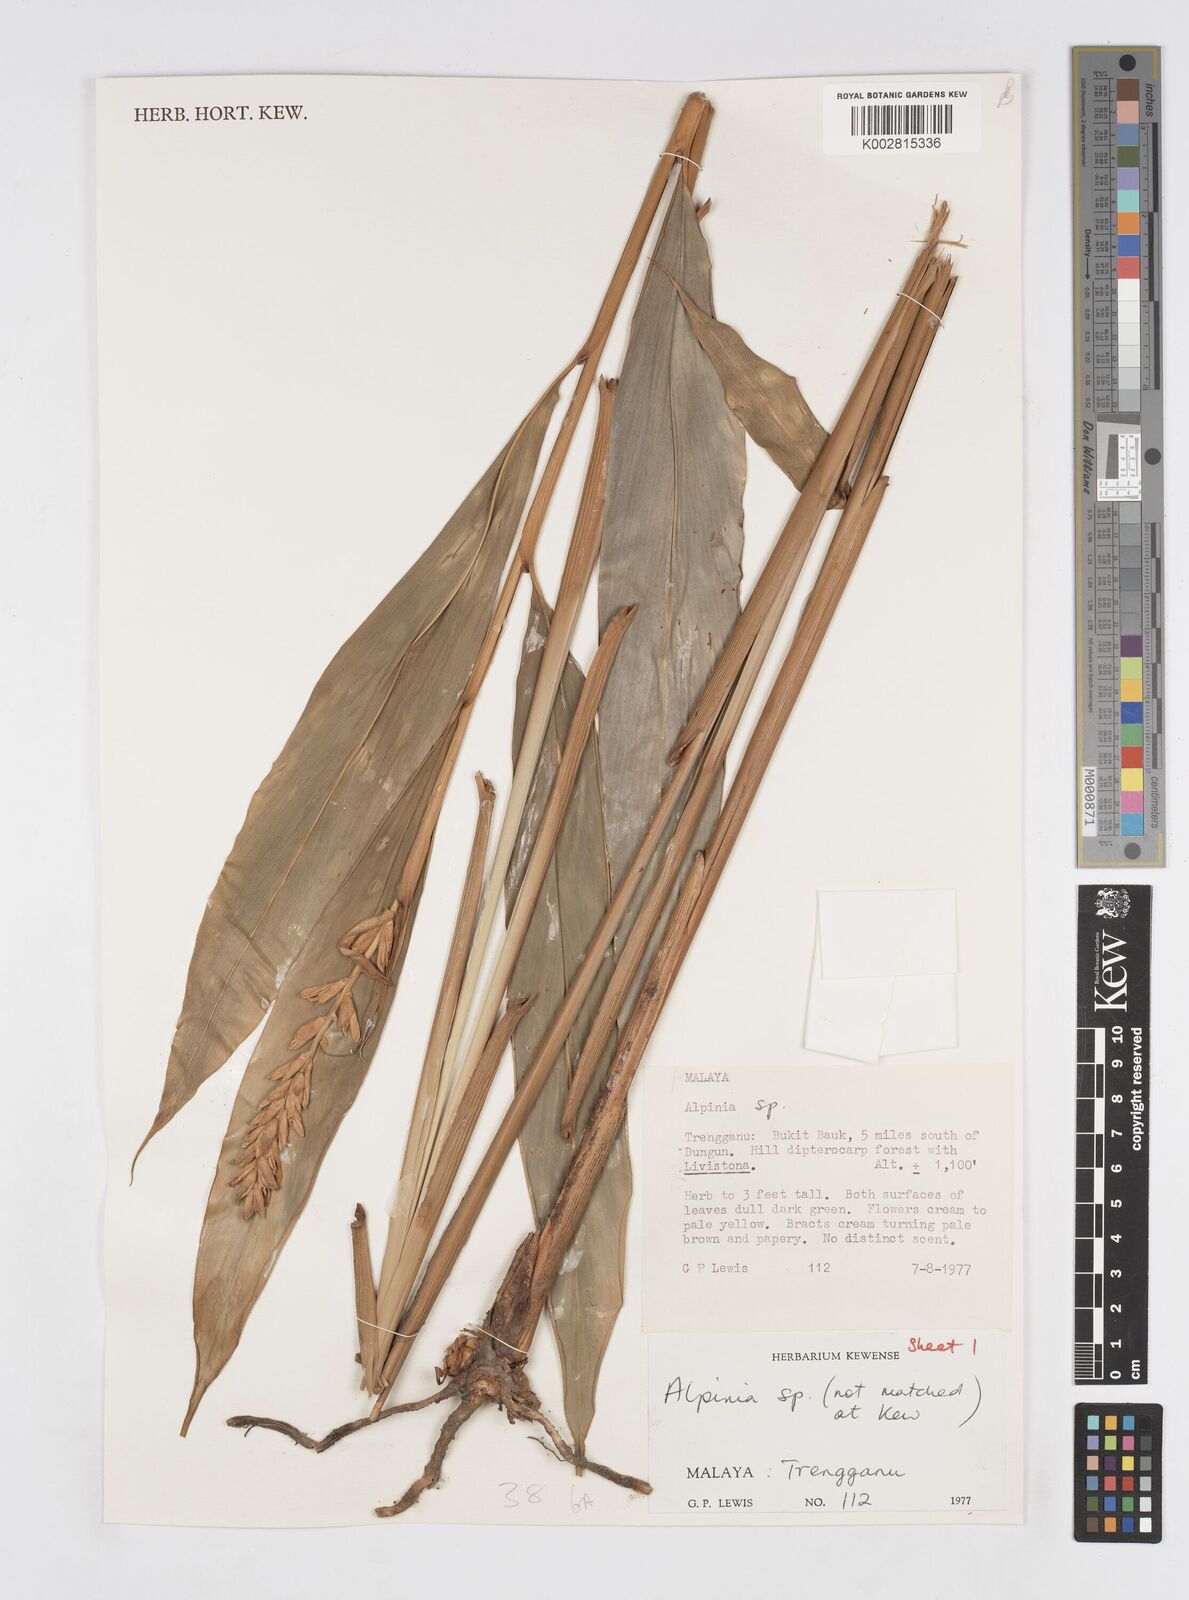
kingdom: Plantae
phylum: Tracheophyta
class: Liliopsida
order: Zingiberales
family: Zingiberaceae
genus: Alpinia
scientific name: Alpinia
